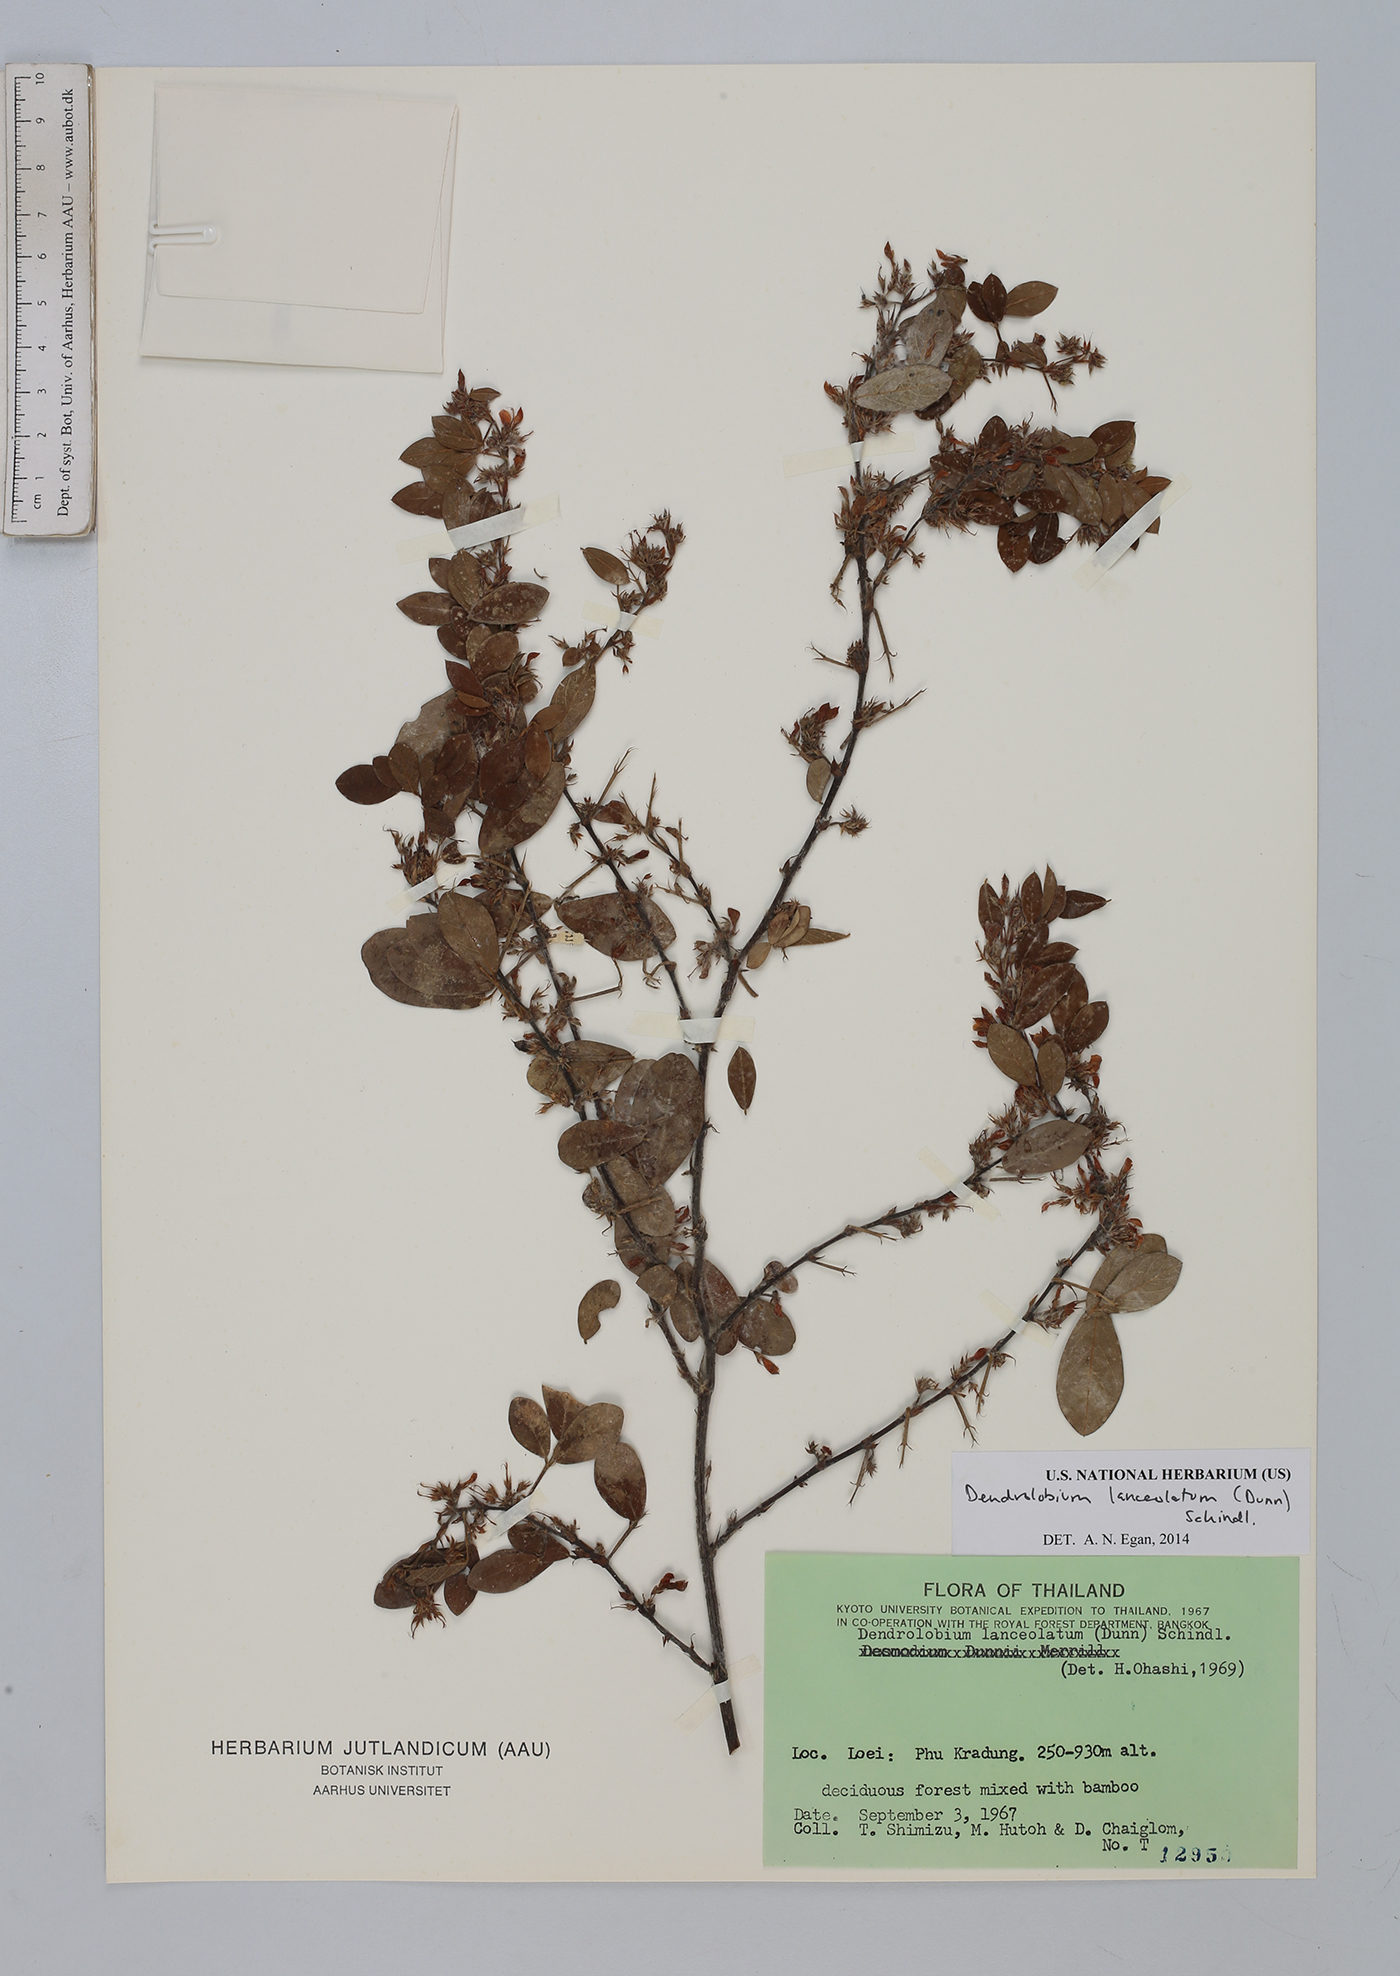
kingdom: Plantae
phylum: Tracheophyta
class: Magnoliopsida
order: Fabales
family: Fabaceae
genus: Dendrolobium
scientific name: Dendrolobium lanceolatum
